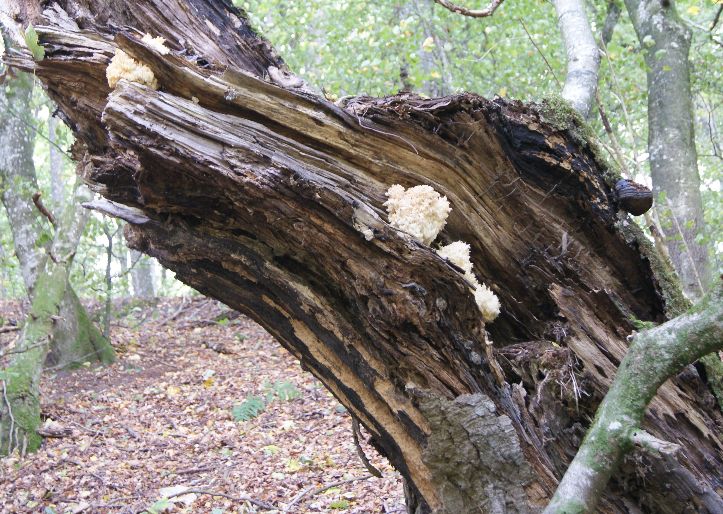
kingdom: Fungi
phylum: Basidiomycota
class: Agaricomycetes
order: Russulales
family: Hericiaceae
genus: Hericium
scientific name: Hericium coralloides
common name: koralpigsvamp
